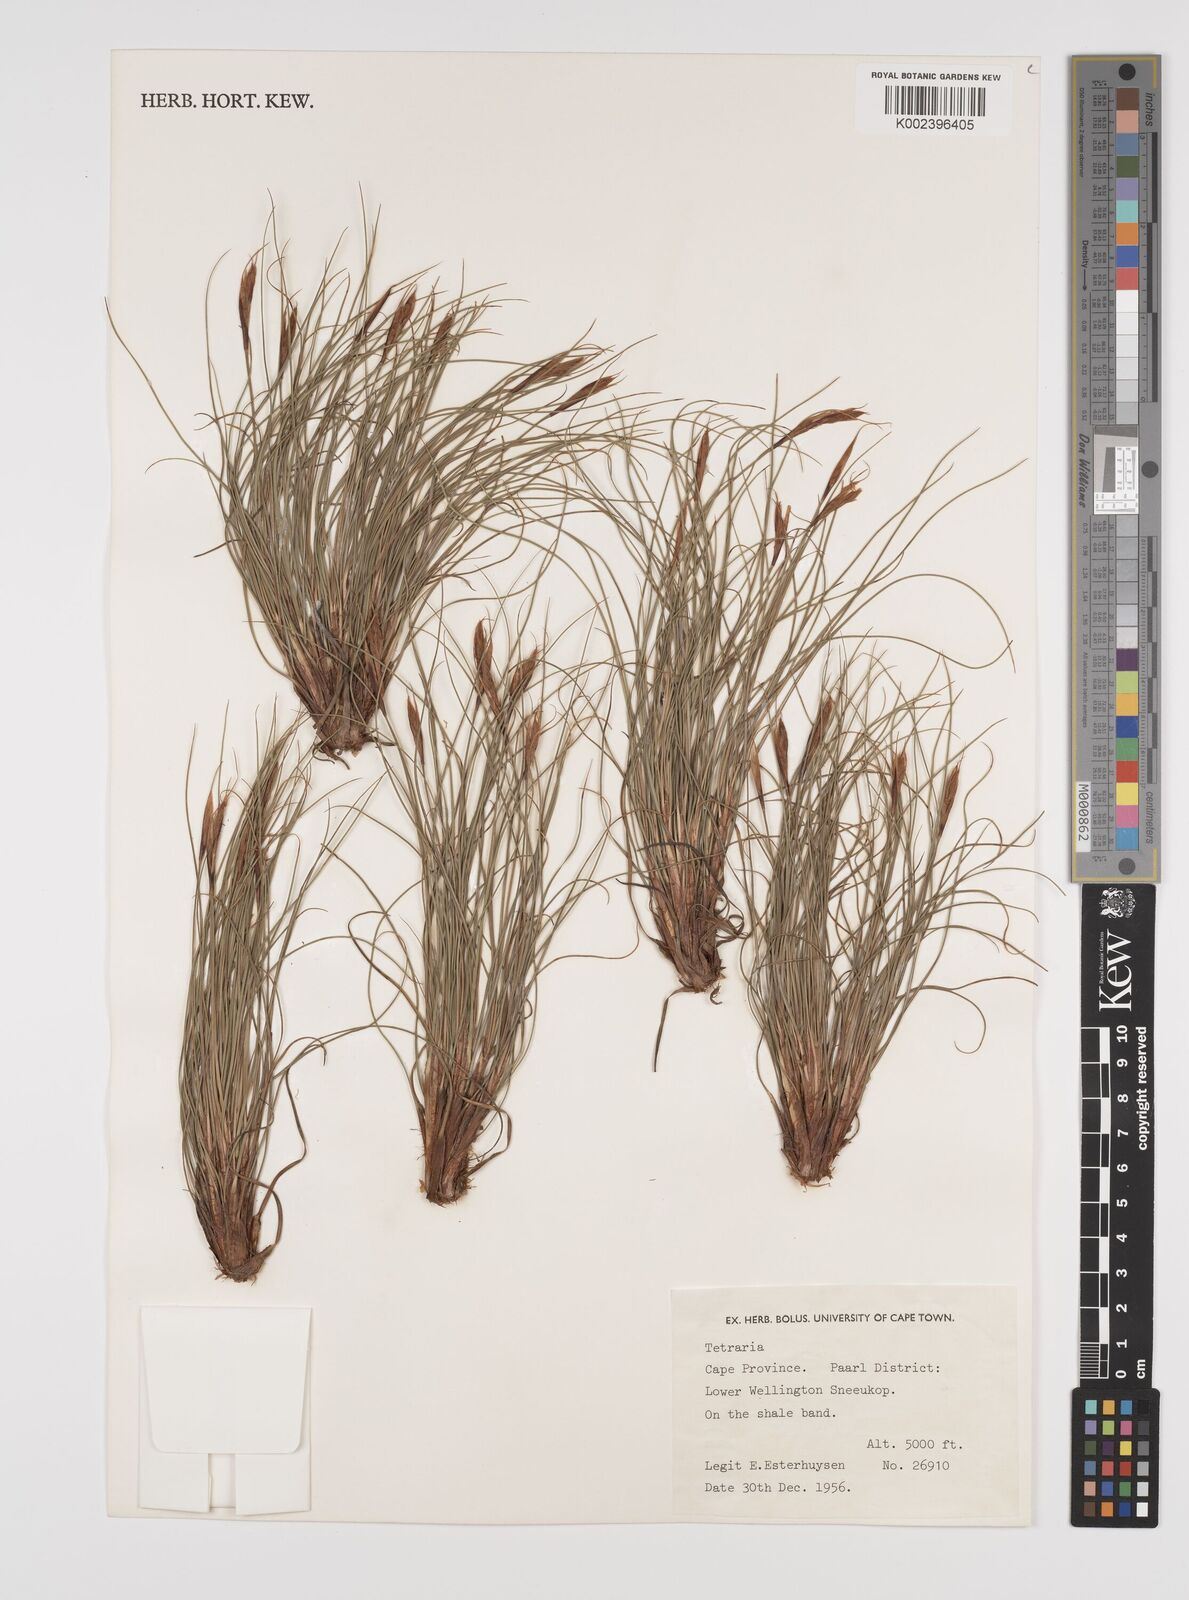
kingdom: Plantae
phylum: Tracheophyta
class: Liliopsida
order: Poales
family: Cyperaceae
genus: Tetraria
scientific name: Tetraria
